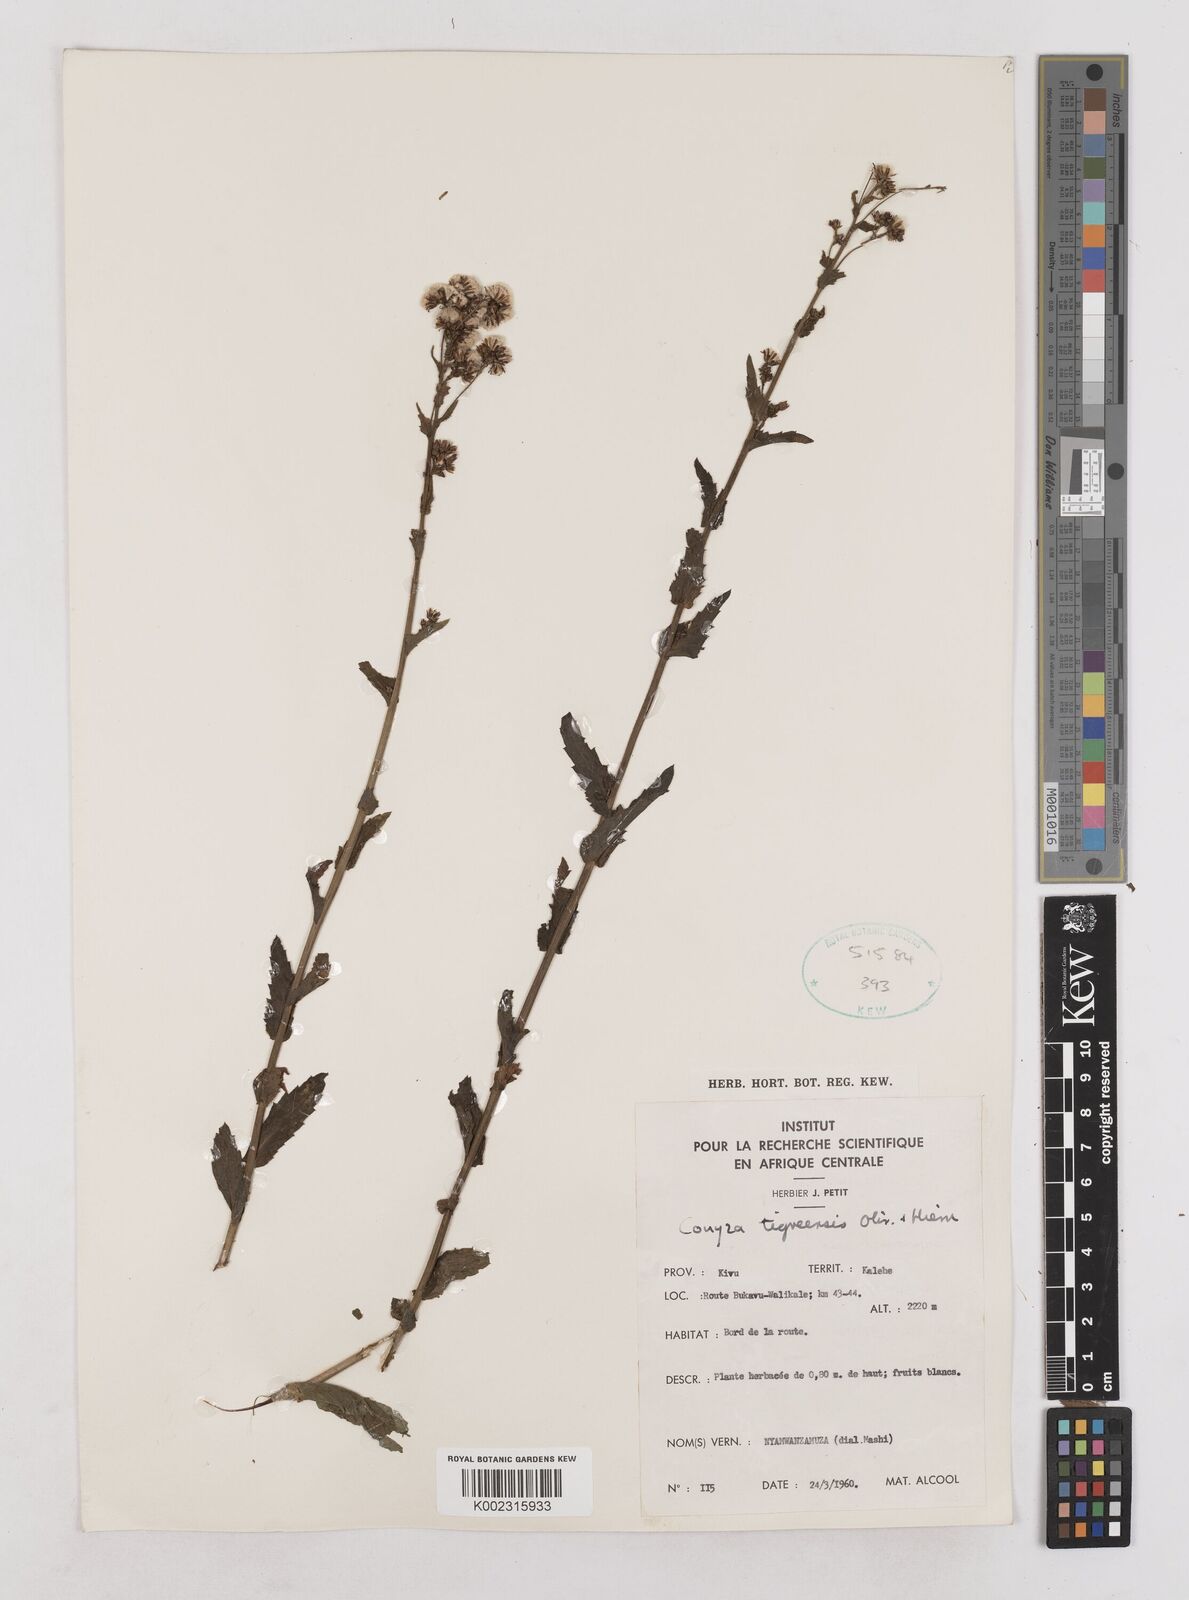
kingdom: Plantae
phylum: Tracheophyta
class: Magnoliopsida
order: Asterales
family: Asteraceae
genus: Eschenbachia
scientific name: Eschenbachia tigrensis
